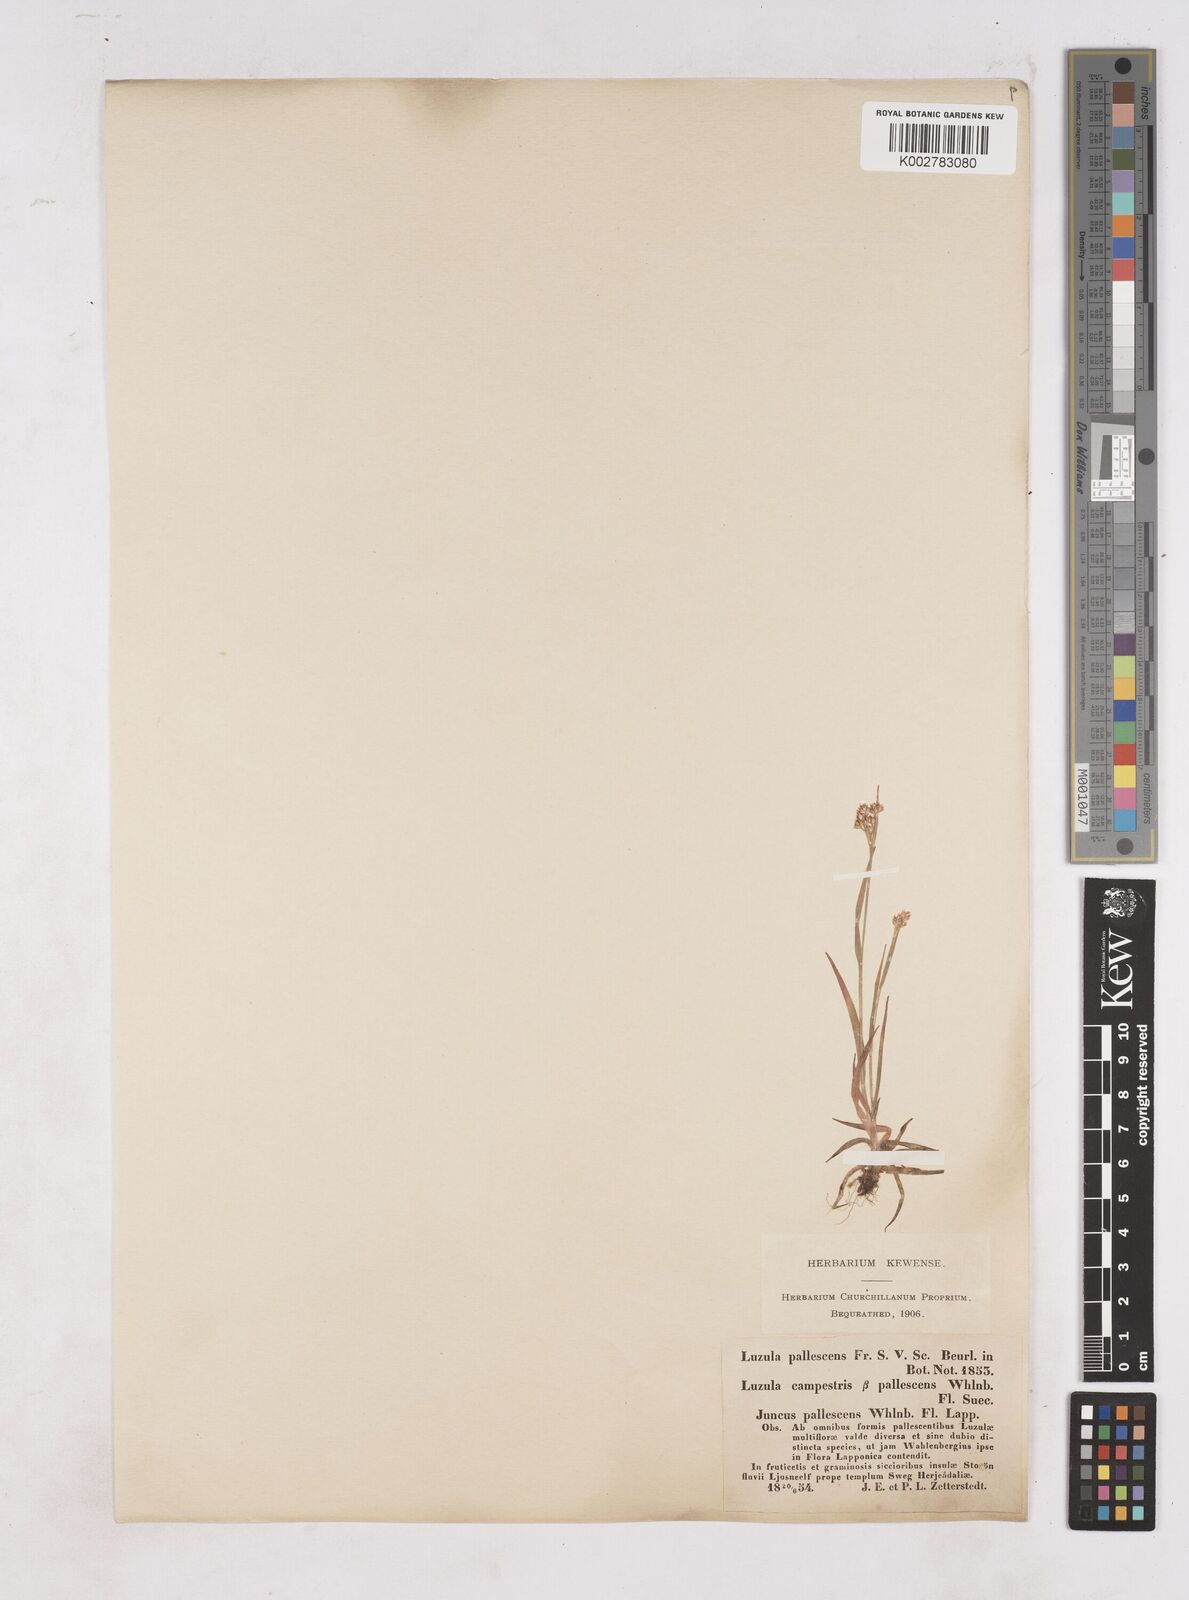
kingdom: Plantae
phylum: Tracheophyta
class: Liliopsida
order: Poales
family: Juncaceae
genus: Luzula
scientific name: Luzula pallescens
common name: Fen wood-rush
